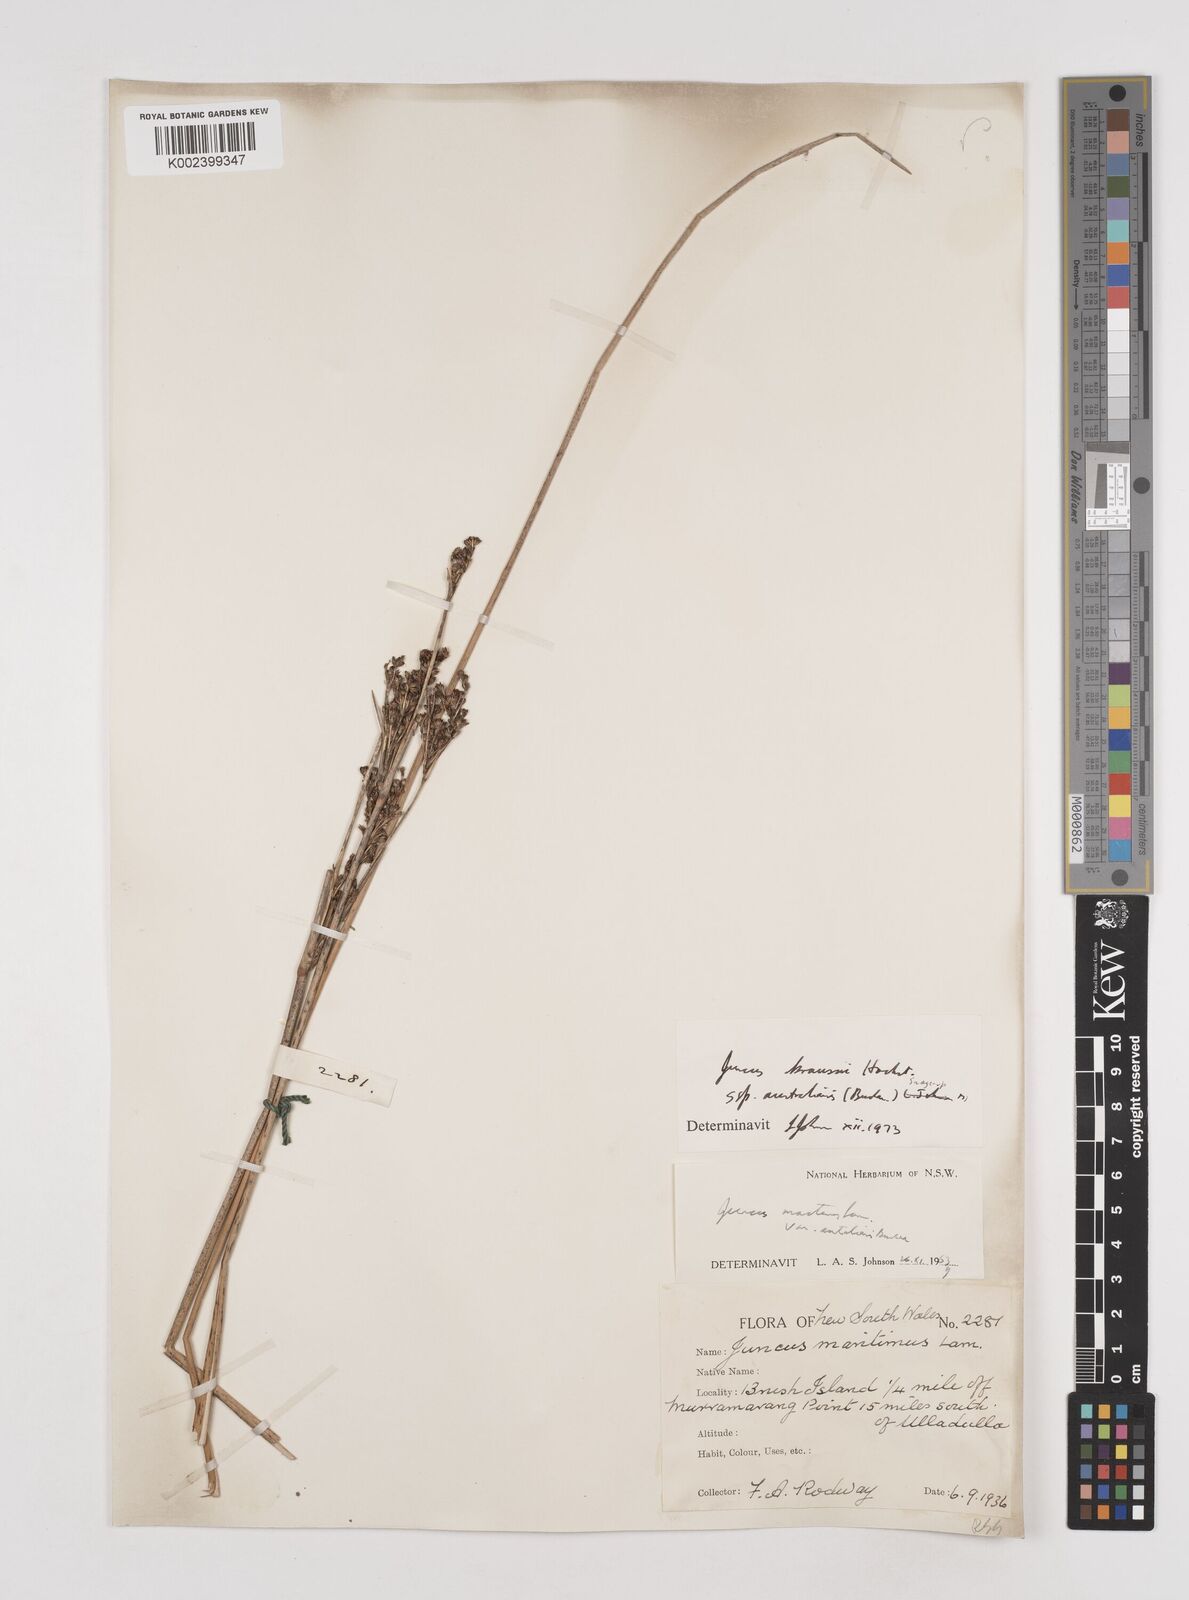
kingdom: Plantae
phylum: Tracheophyta
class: Liliopsida
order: Poales
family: Juncaceae
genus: Juncus
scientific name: Juncus kraussii
